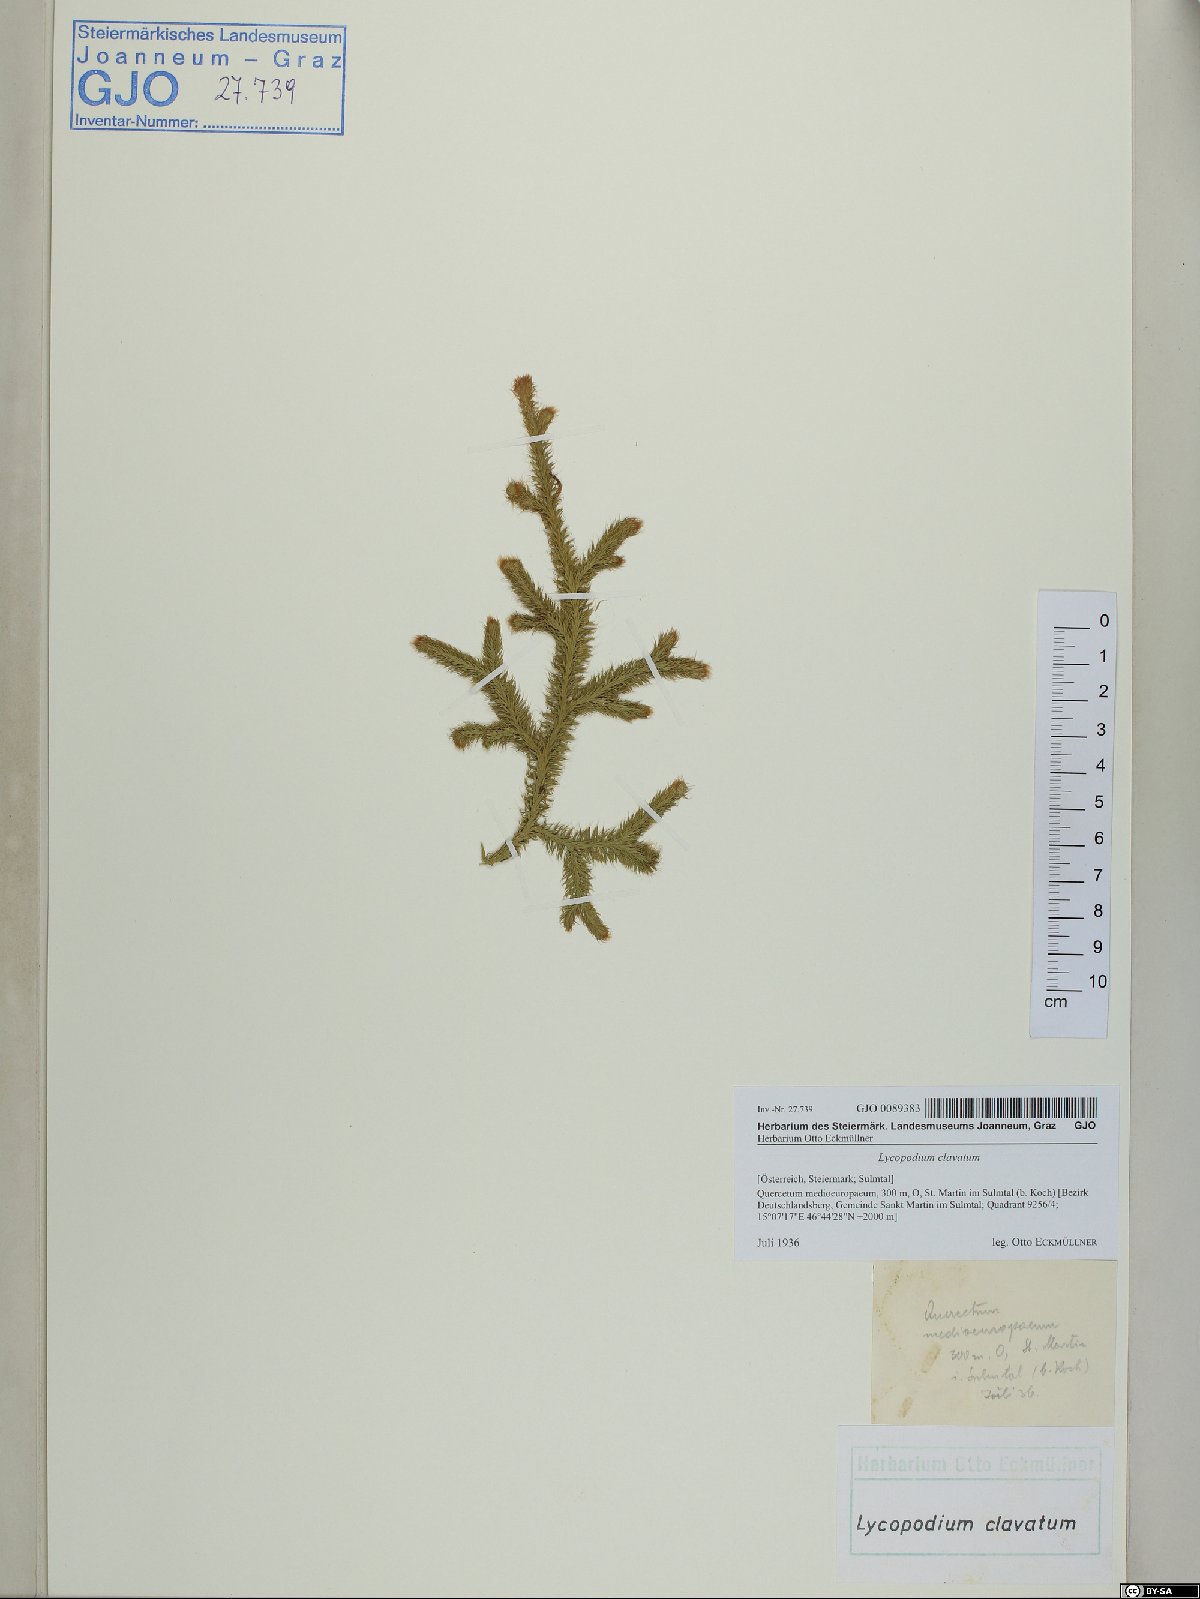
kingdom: Plantae
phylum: Tracheophyta
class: Lycopodiopsida
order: Lycopodiales
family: Lycopodiaceae
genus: Lycopodium
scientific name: Lycopodium clavatum
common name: Stag's-horn clubmoss
